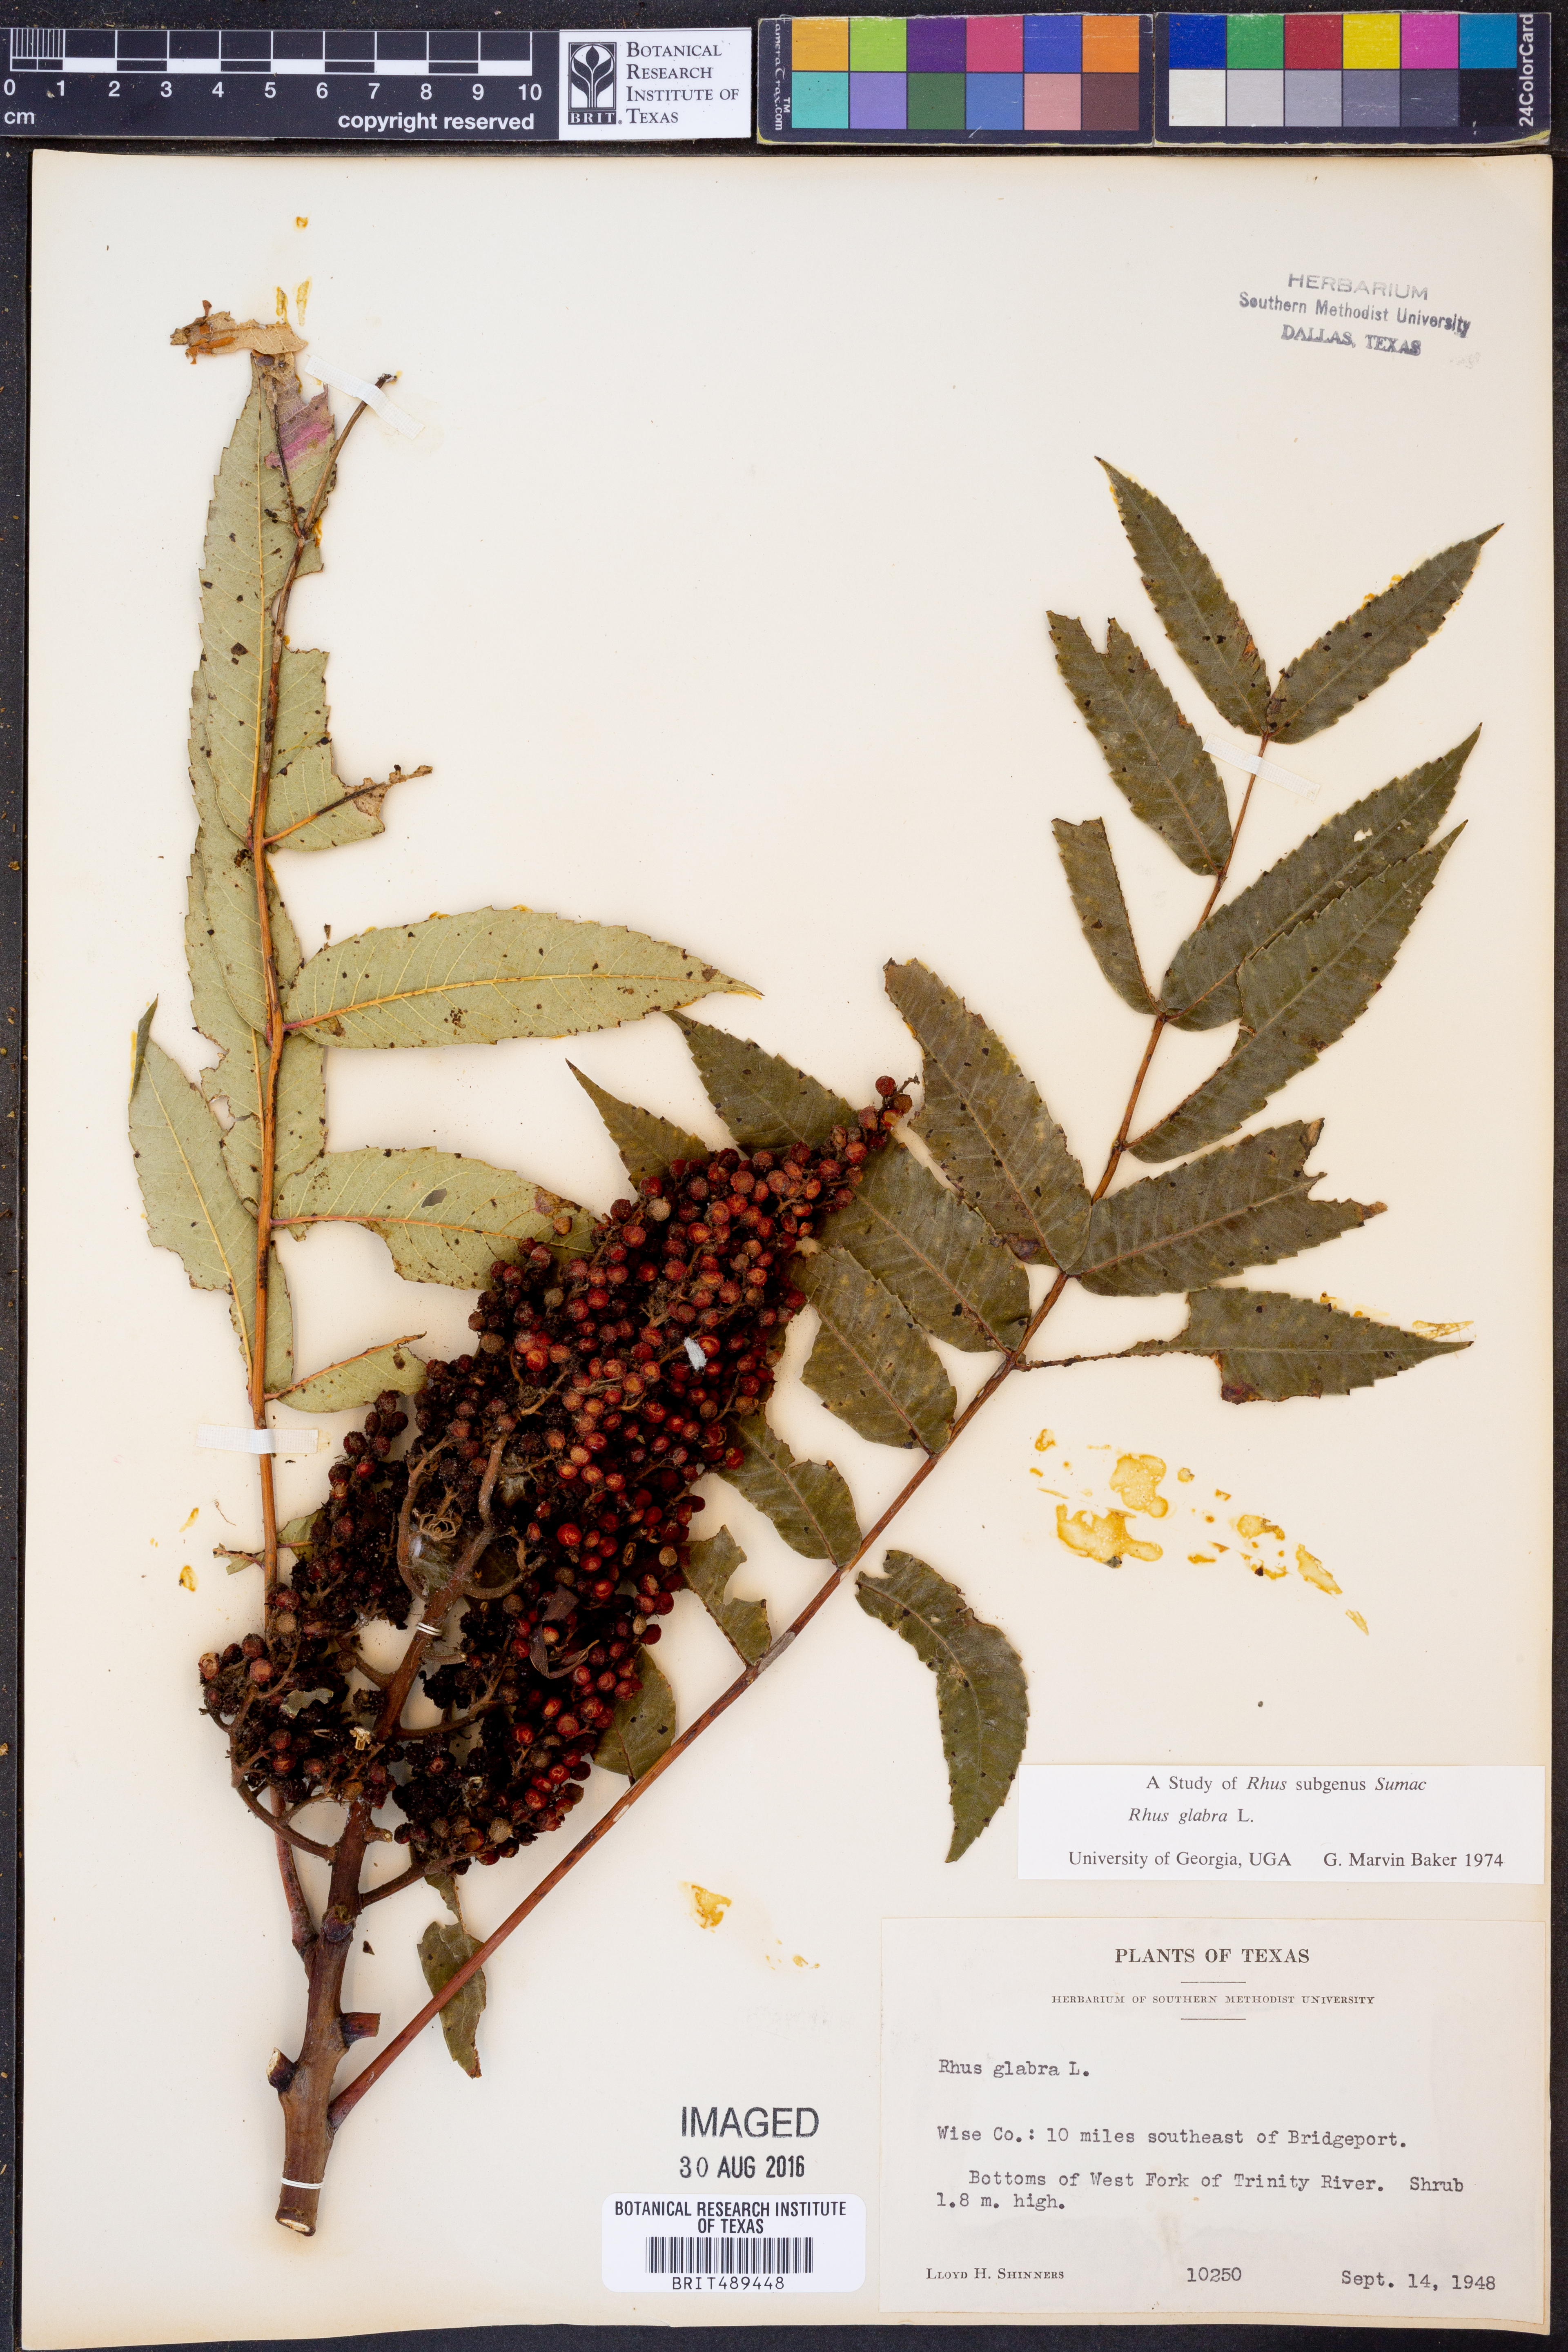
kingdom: Plantae
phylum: Tracheophyta
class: Magnoliopsida
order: Sapindales
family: Anacardiaceae
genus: Rhus
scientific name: Rhus glabra
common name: Scarlet sumac
